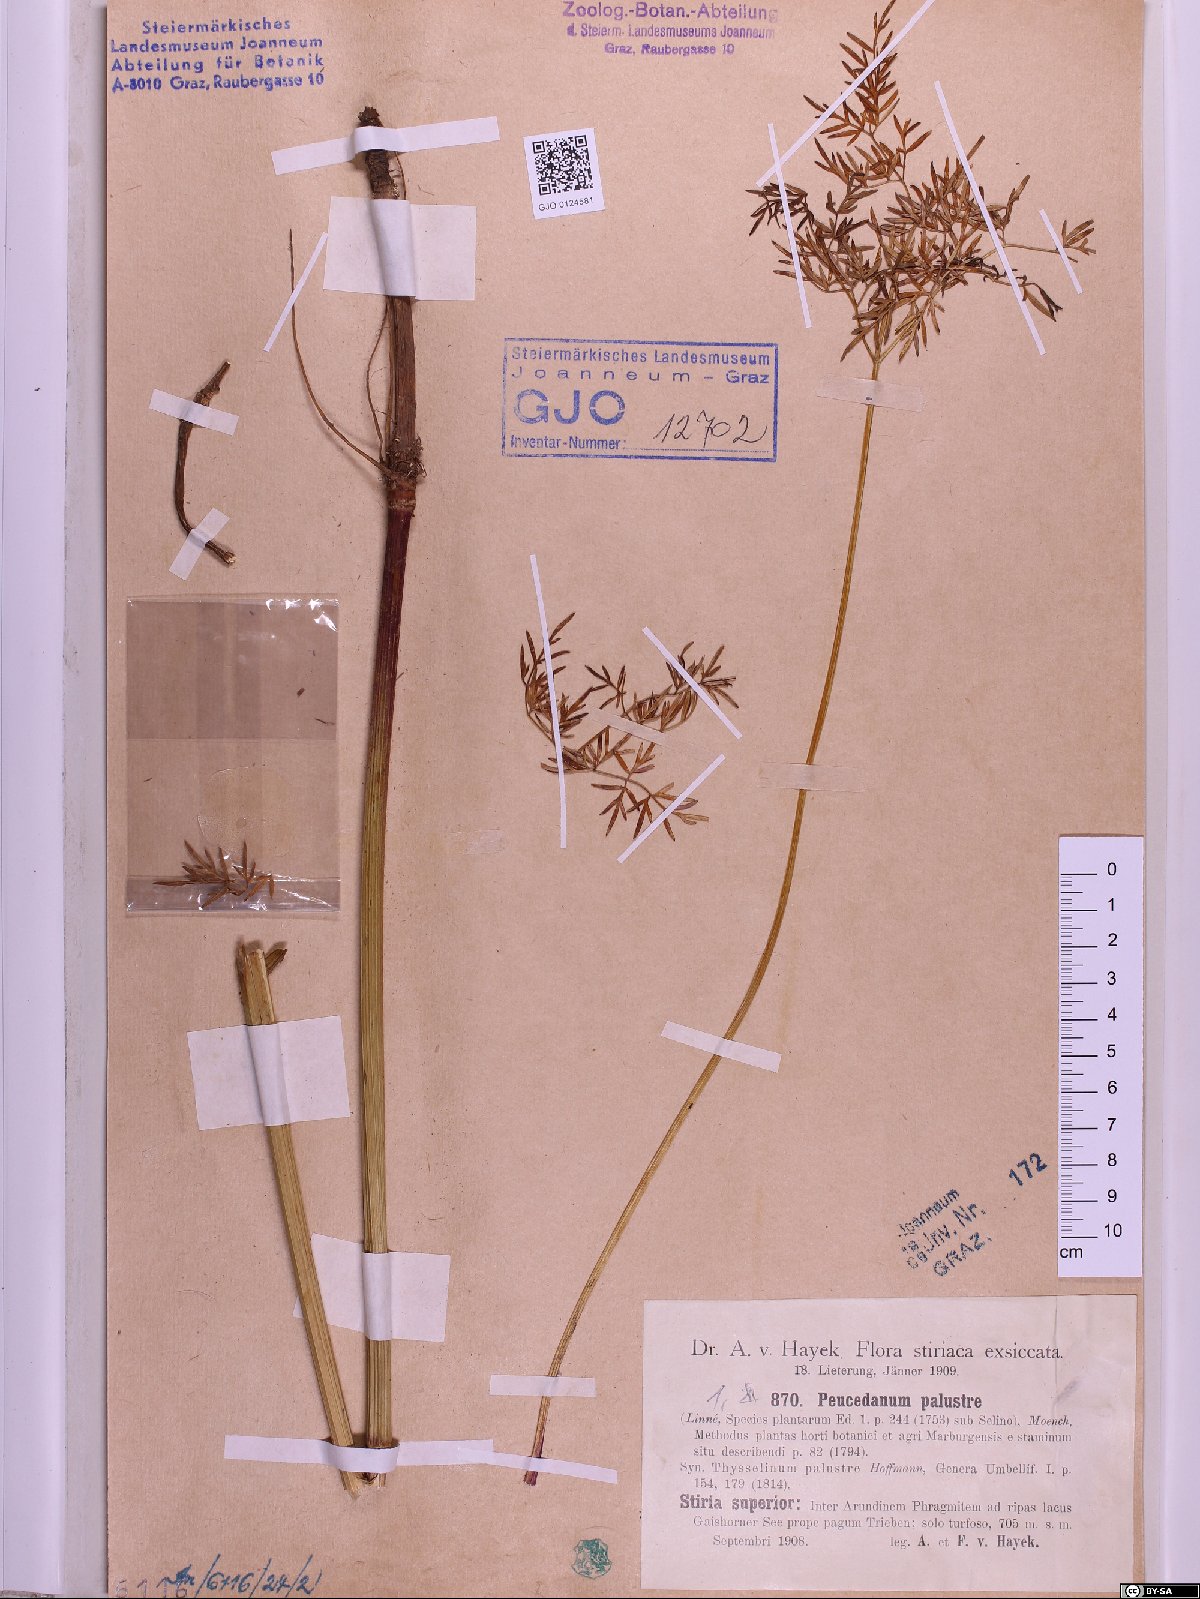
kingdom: Plantae
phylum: Tracheophyta
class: Magnoliopsida
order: Apiales
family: Apiaceae
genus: Thysselinum
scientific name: Thysselinum palustre
